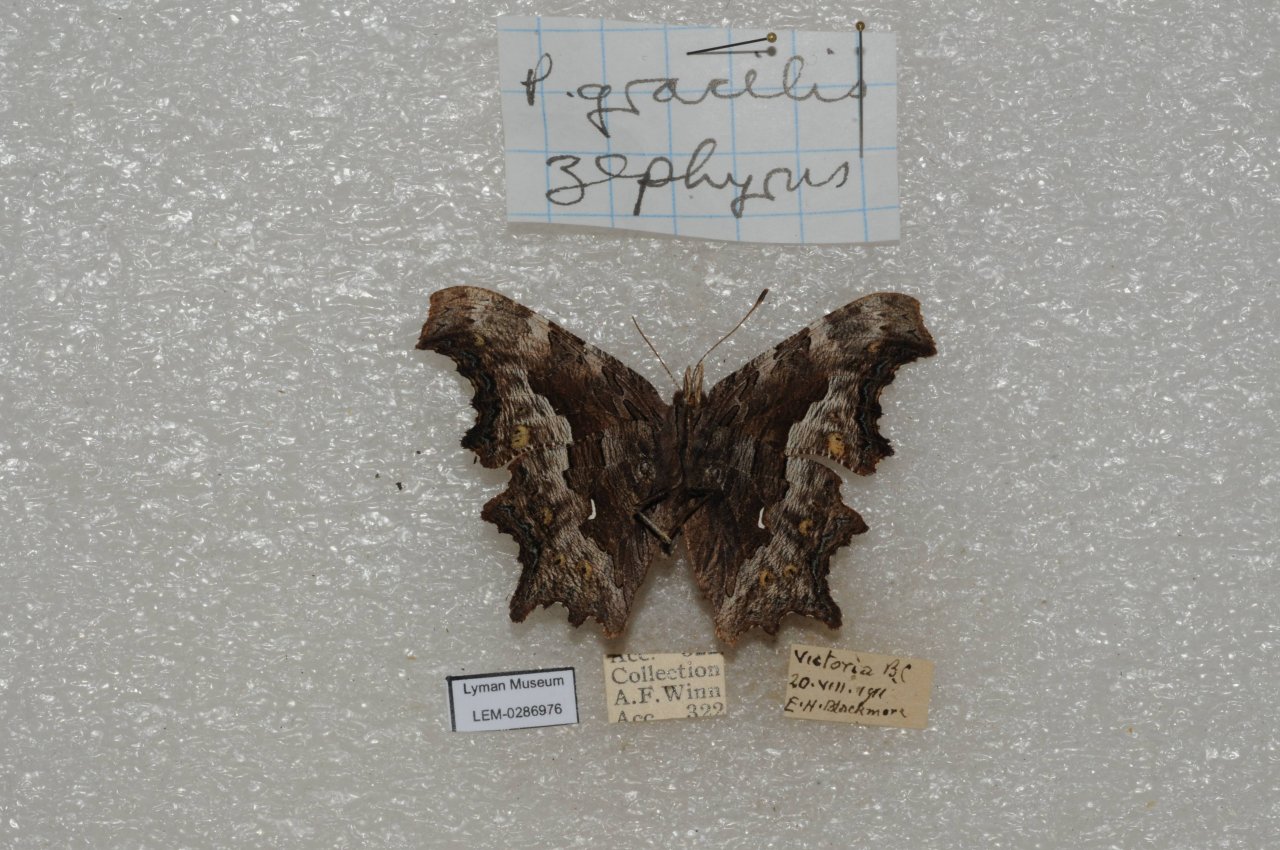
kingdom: Animalia
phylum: Arthropoda
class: Insecta
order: Lepidoptera
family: Nymphalidae
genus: Polygonia
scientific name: Polygonia gracilis
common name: Hoary Comma
